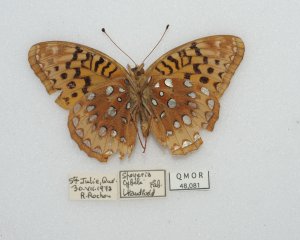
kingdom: Animalia
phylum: Arthropoda
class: Insecta
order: Lepidoptera
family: Nymphalidae
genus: Speyeria
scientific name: Speyeria cybele
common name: Great Spangled Fritillary
